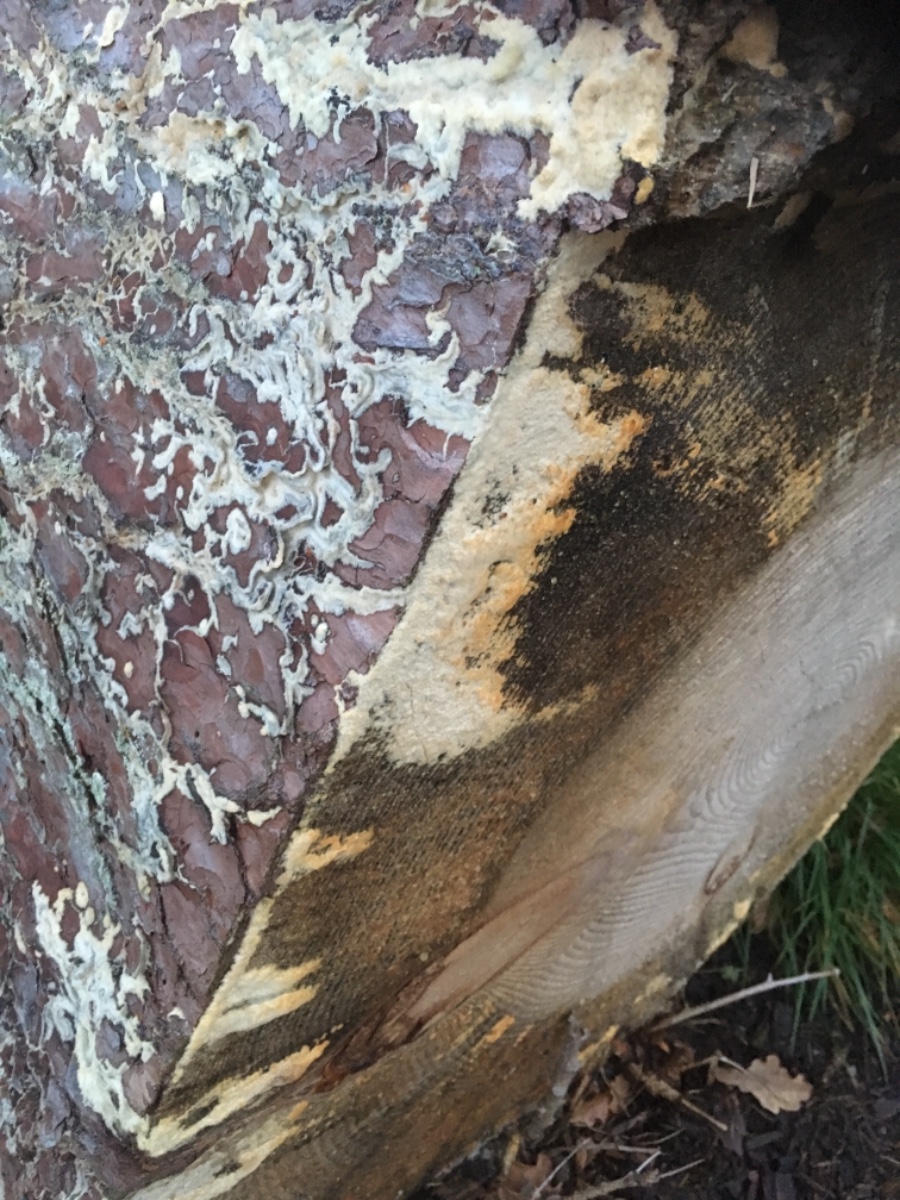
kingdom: Fungi
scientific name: Fungi
